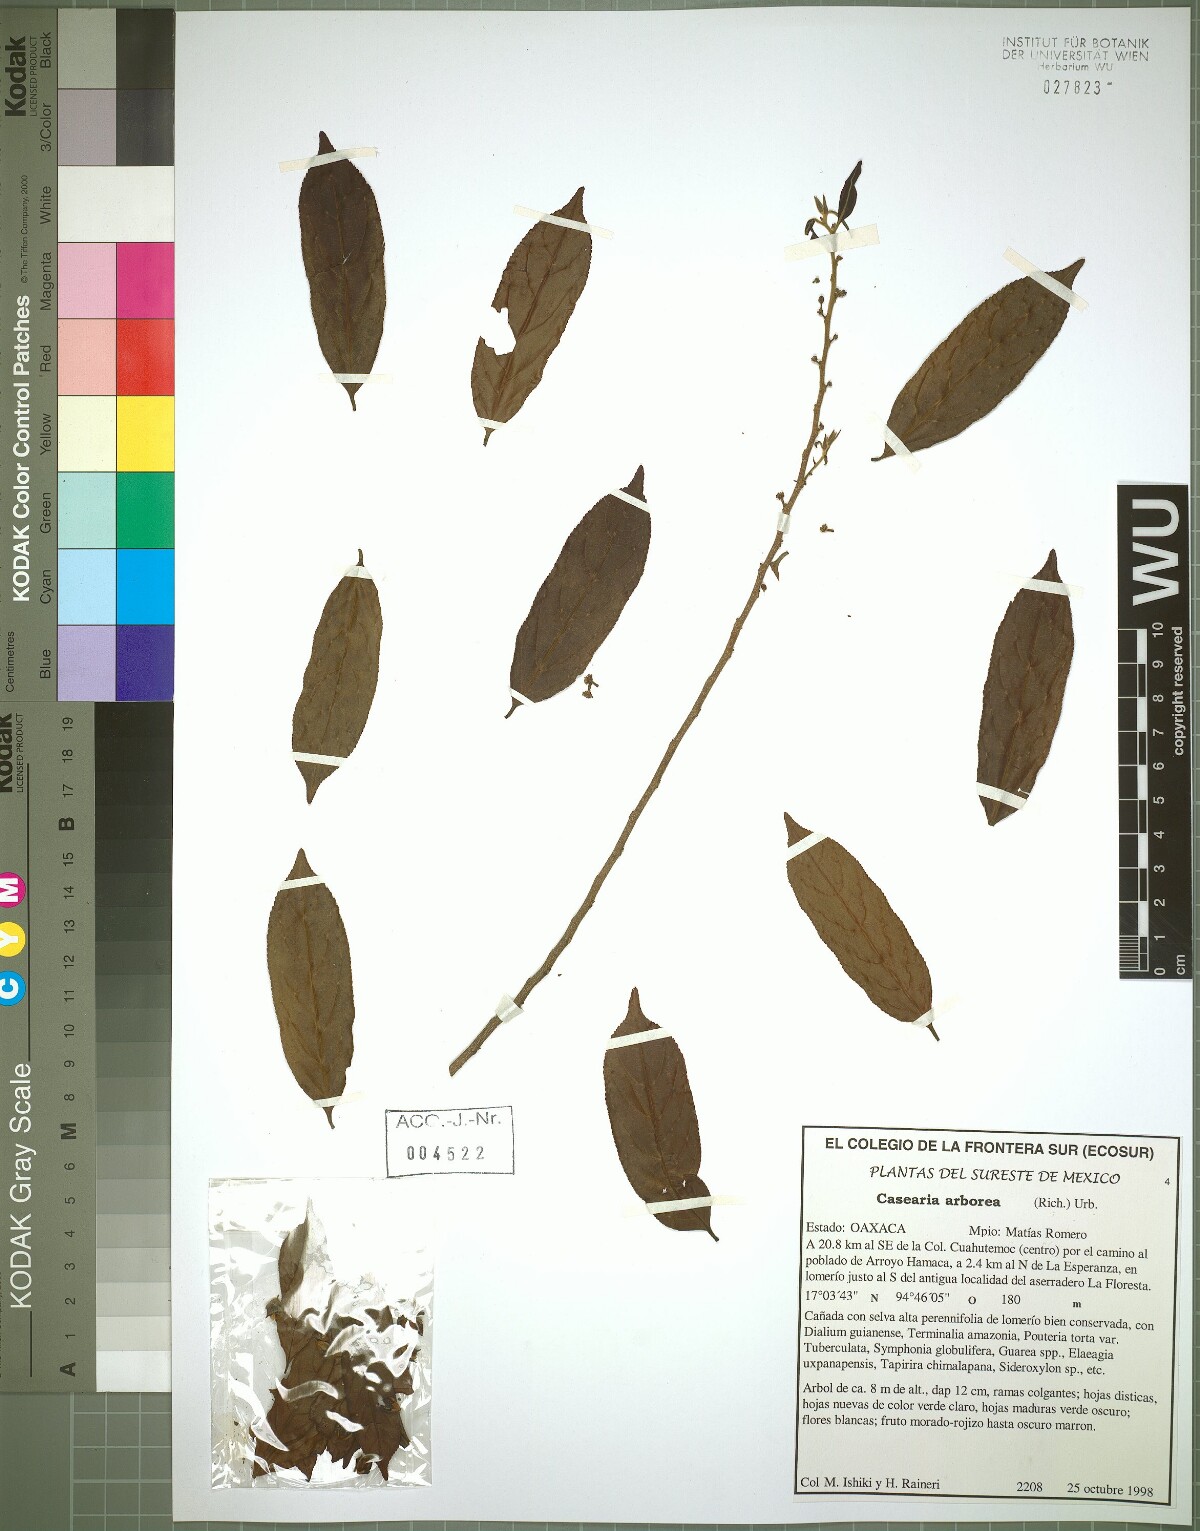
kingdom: Plantae
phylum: Tracheophyta
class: Magnoliopsida
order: Malpighiales
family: Salicaceae
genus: Casearia
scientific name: Casearia arborea
